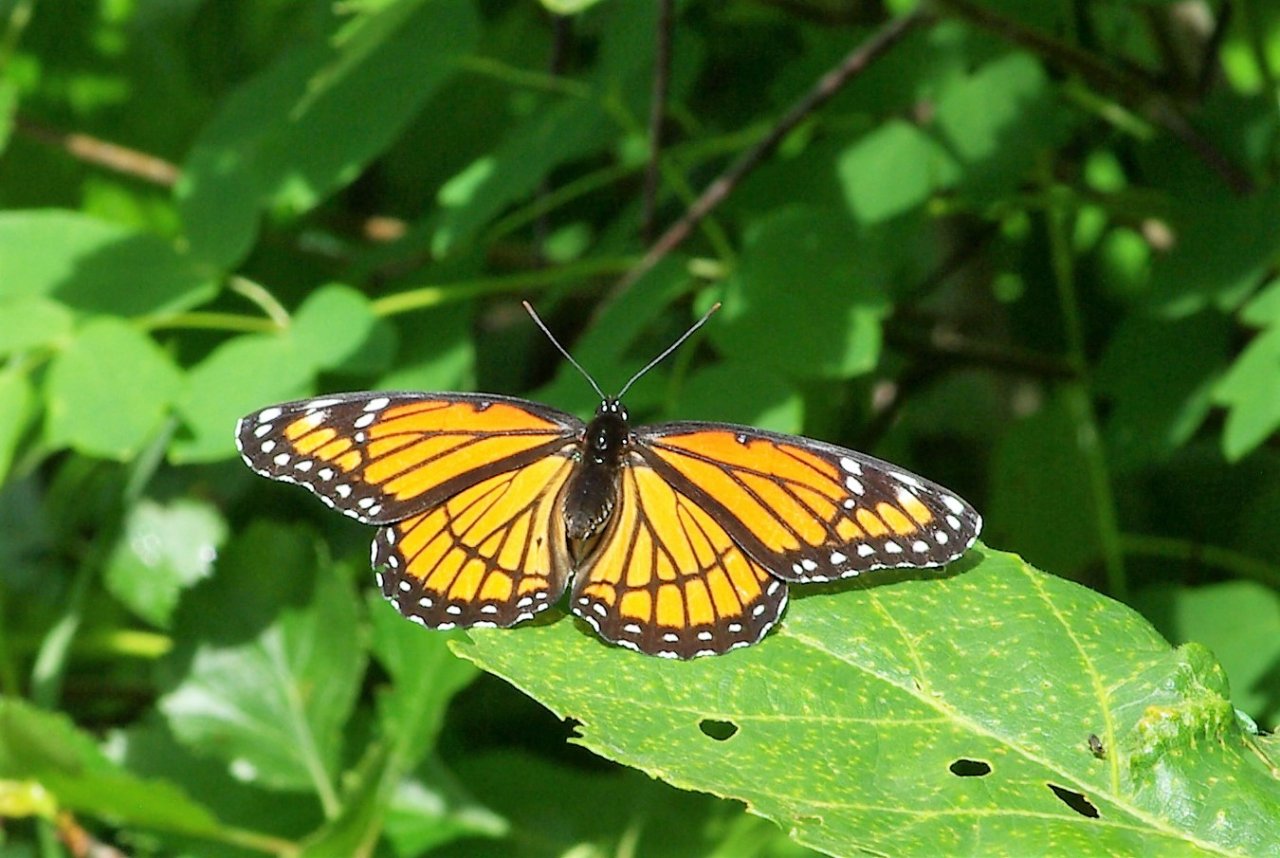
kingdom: Animalia
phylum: Arthropoda
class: Insecta
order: Lepidoptera
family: Nymphalidae
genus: Limenitis
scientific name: Limenitis archippus
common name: Viceroy
